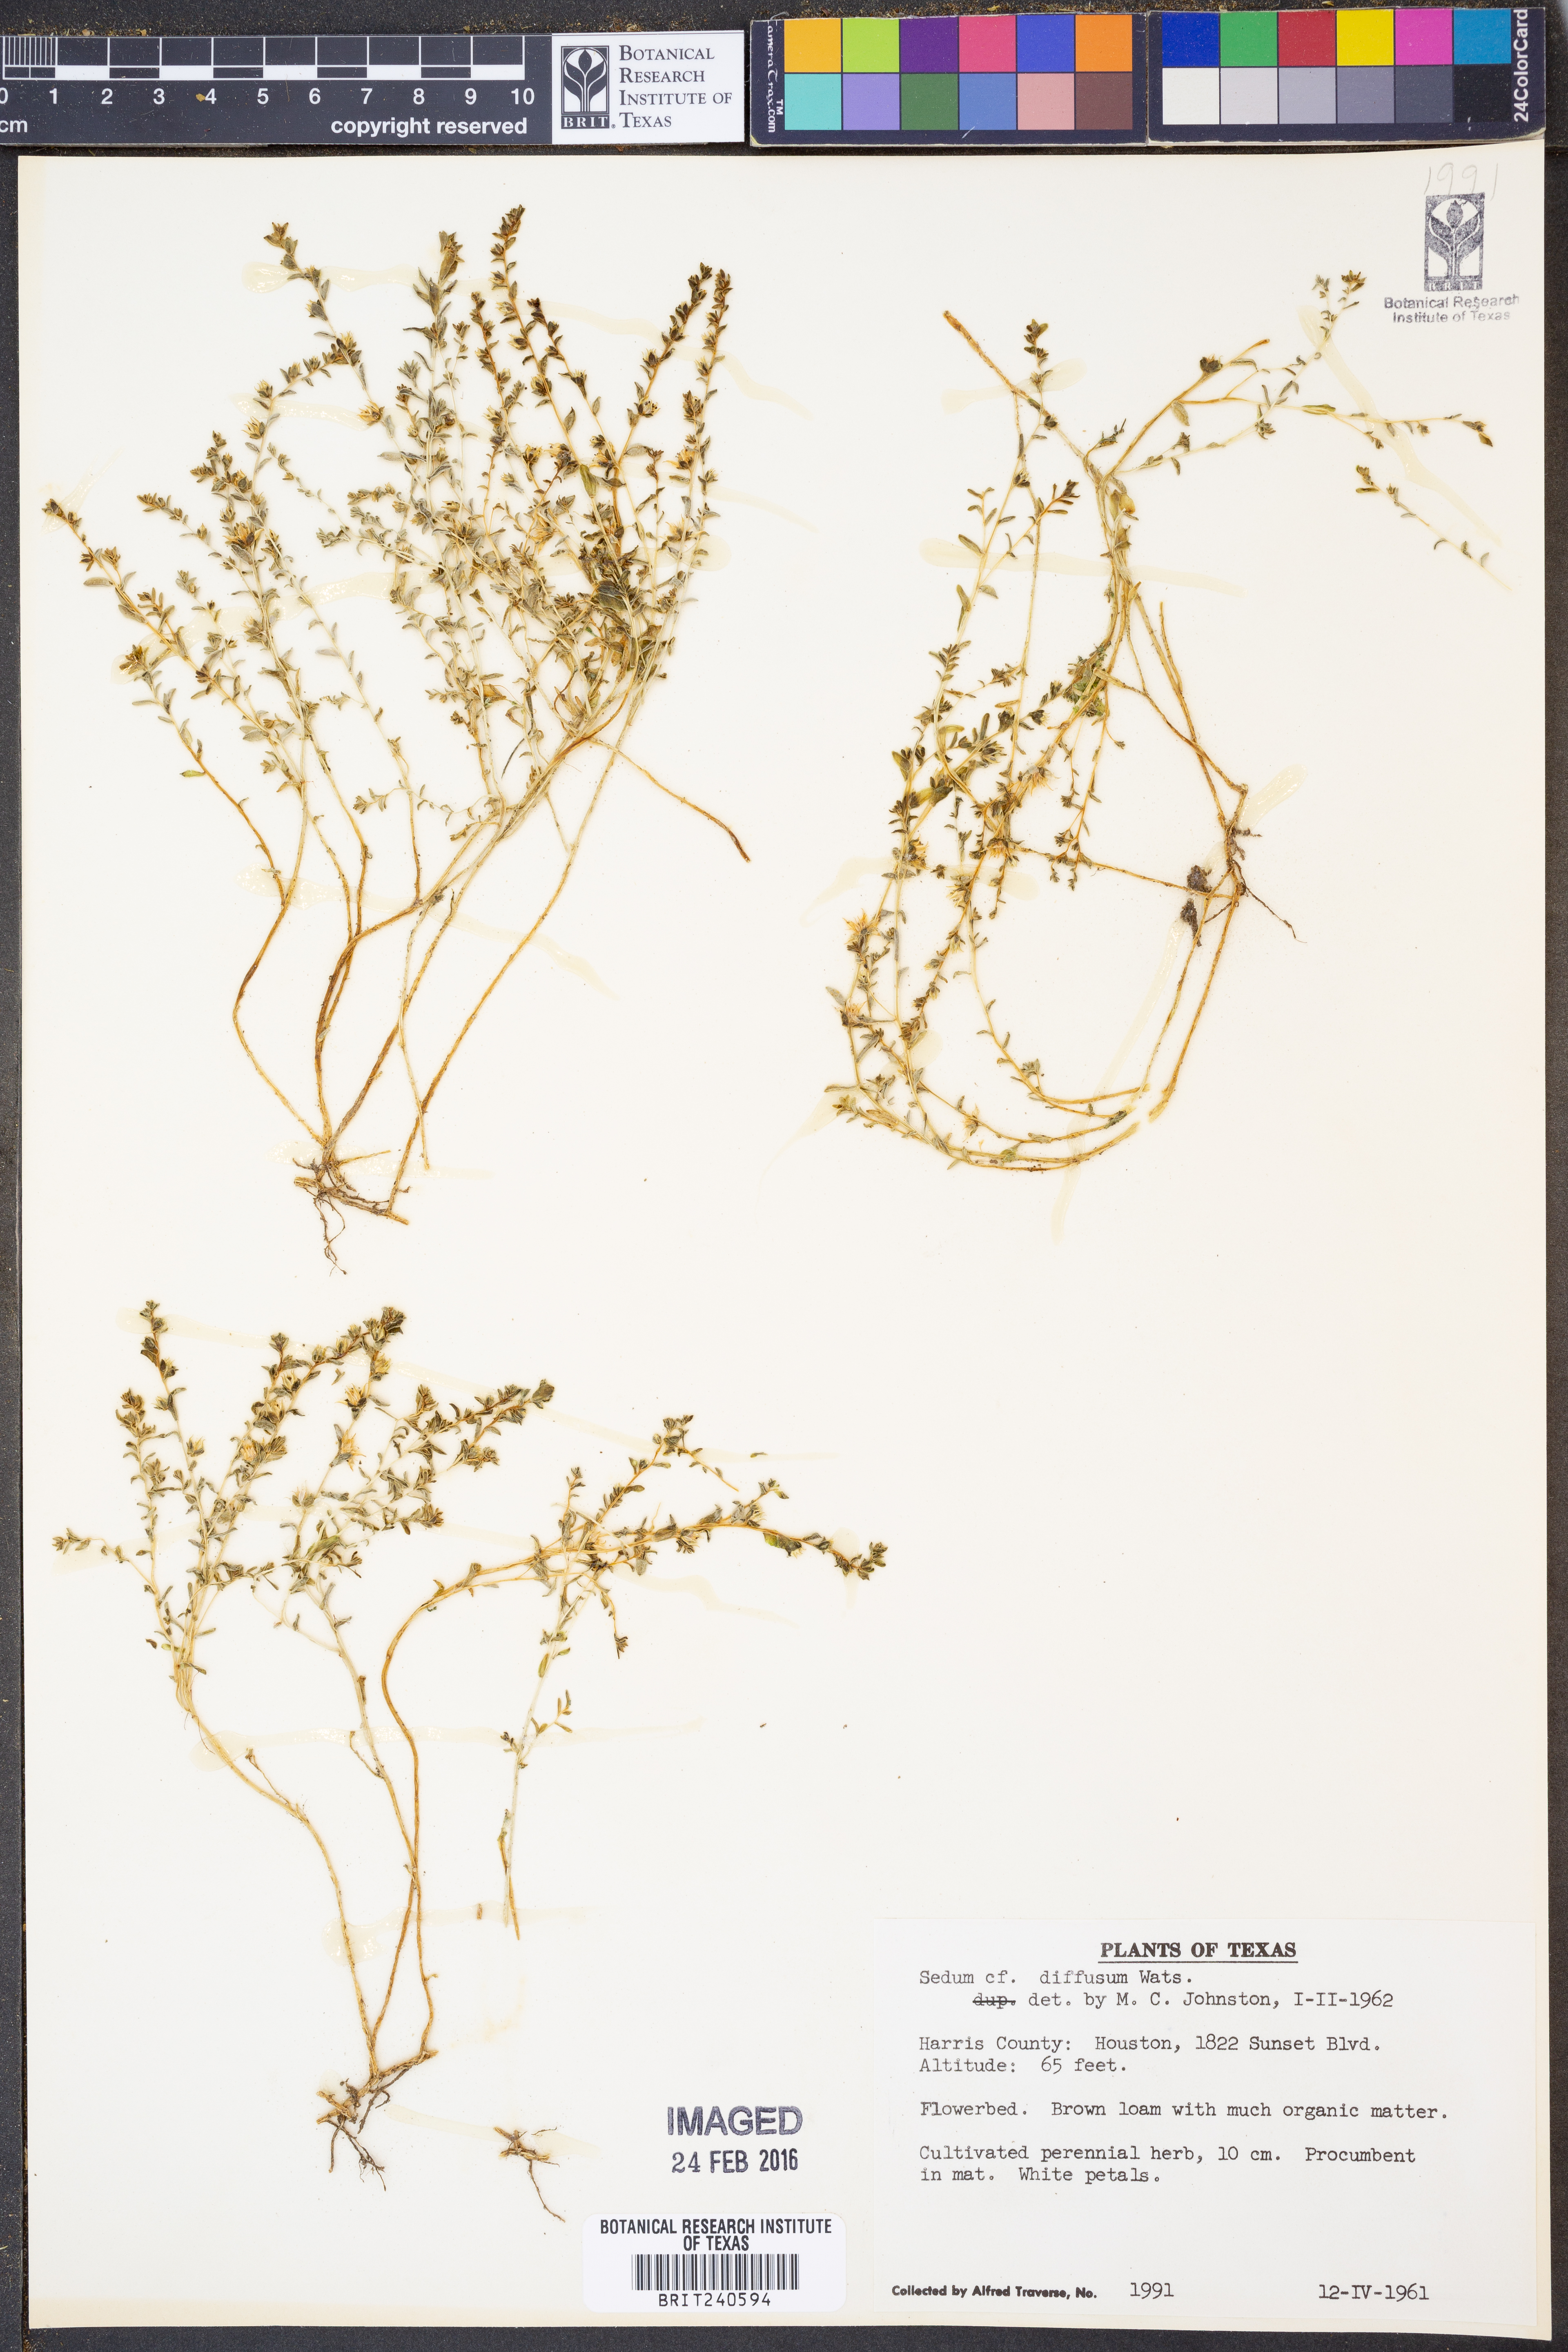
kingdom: Plantae
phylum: Tracheophyta
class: Magnoliopsida
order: Saxifragales
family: Crassulaceae
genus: Sedum
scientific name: Sedum diffusum
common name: Stonecrop
